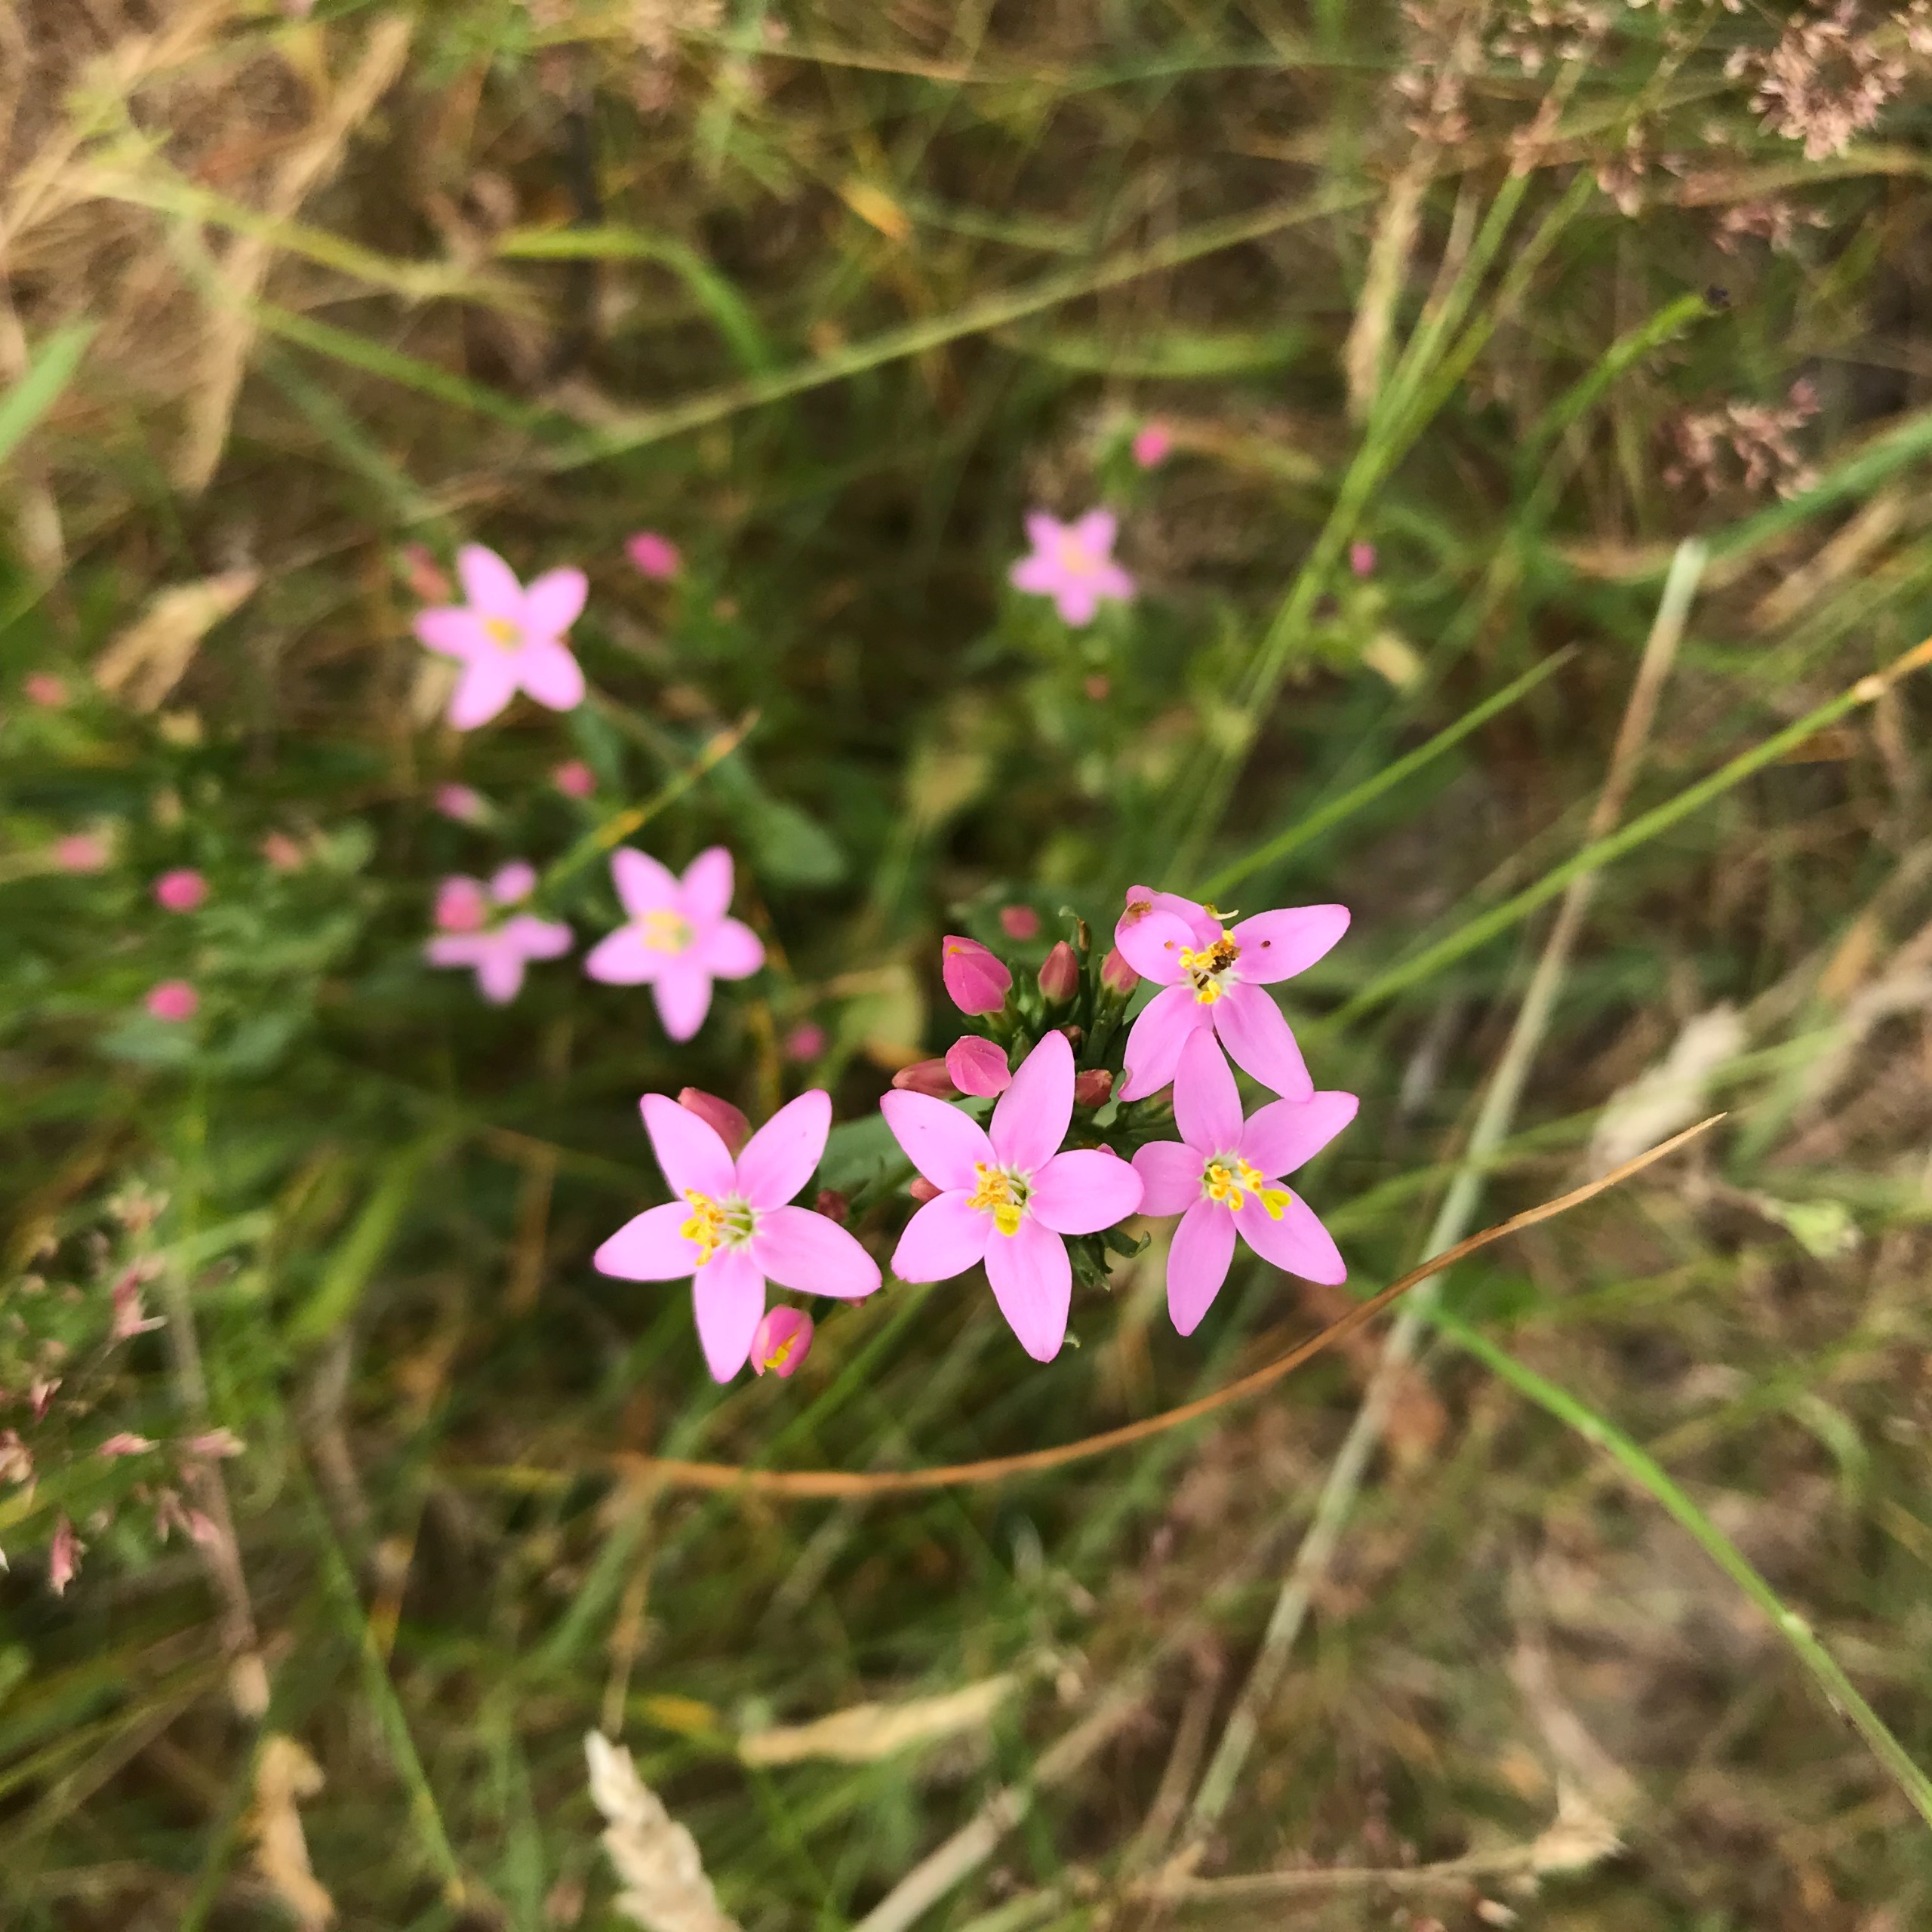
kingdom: Plantae
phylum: Tracheophyta
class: Magnoliopsida
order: Gentianales
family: Gentianaceae
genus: Centaurium
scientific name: Centaurium erythraea
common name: Mark-tusindgylden
